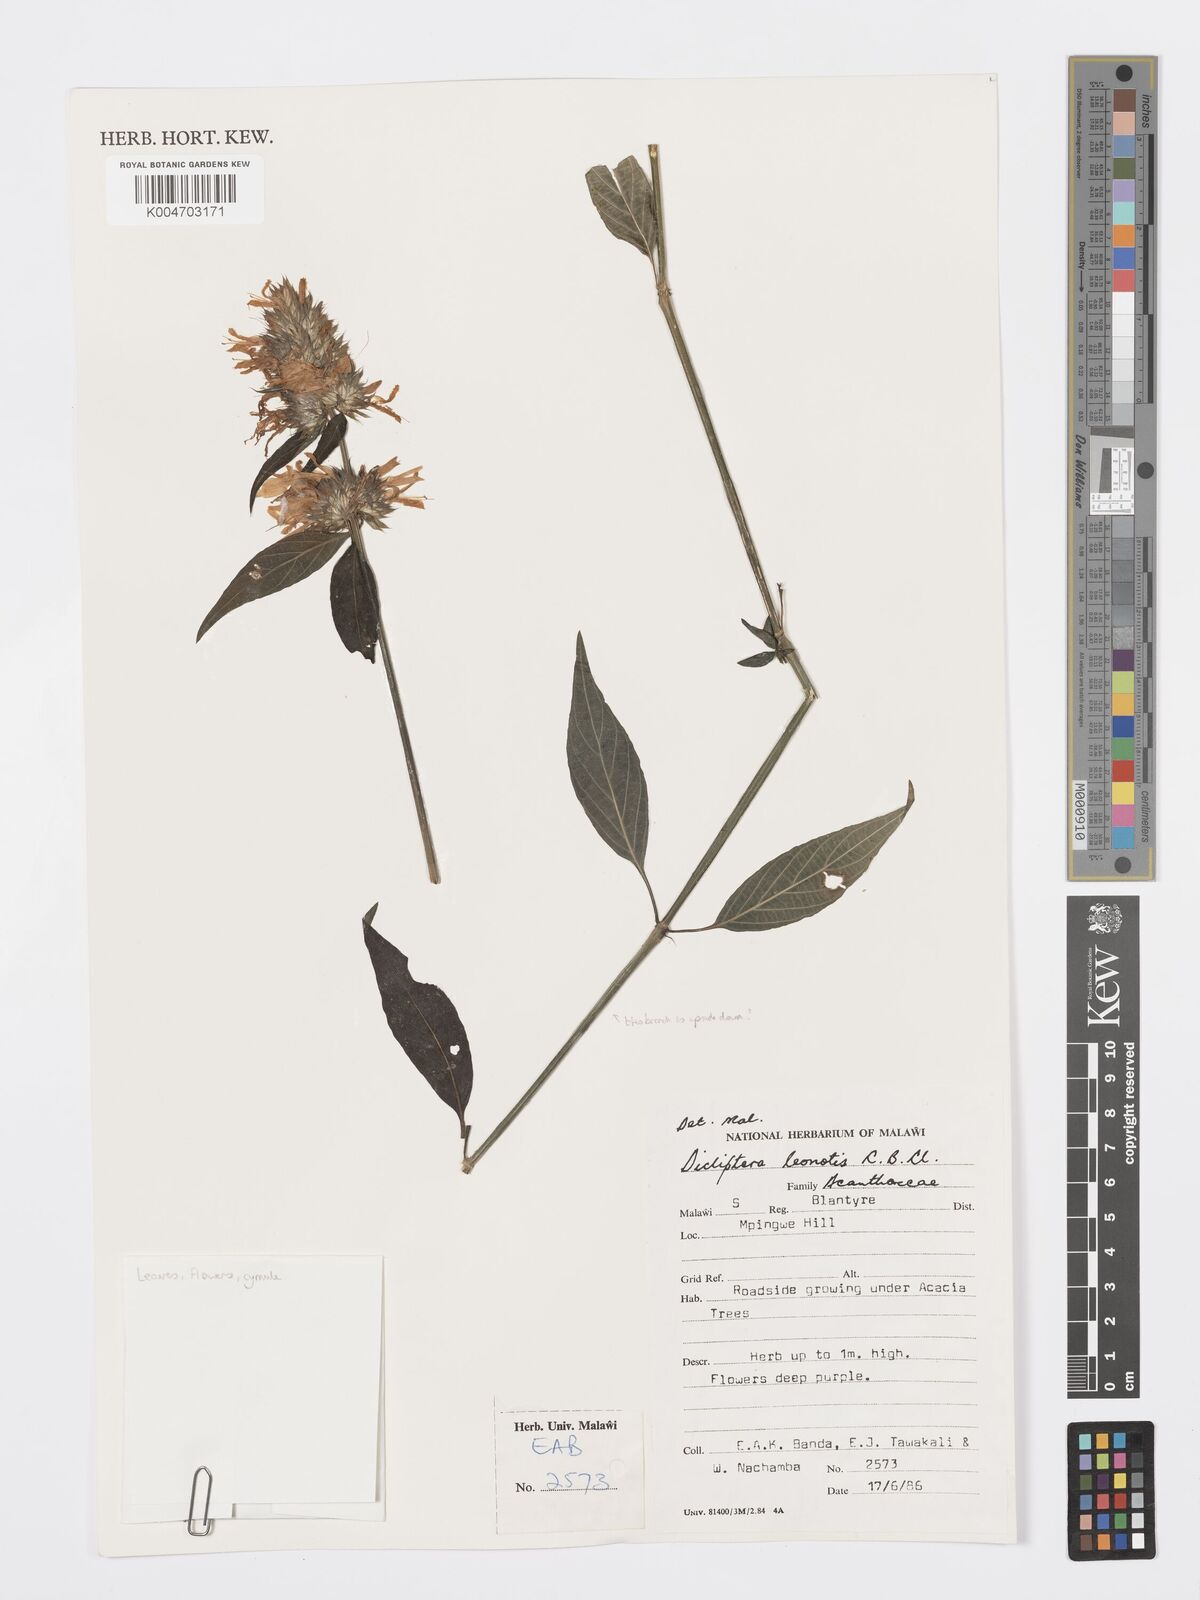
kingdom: Plantae
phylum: Tracheophyta
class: Magnoliopsida
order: Lamiales
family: Acanthaceae
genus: Dicliptera
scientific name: Dicliptera clinopodia
